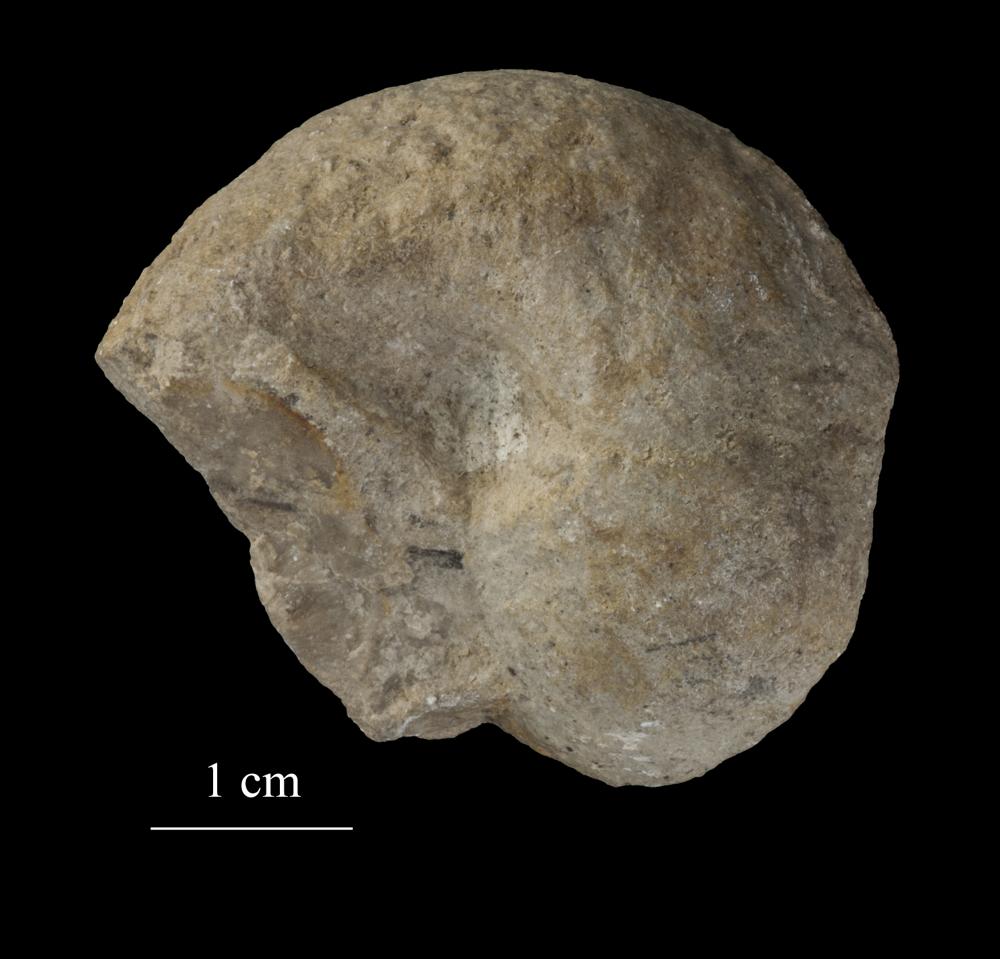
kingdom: Animalia
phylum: Mollusca
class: Gastropoda
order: Neogastropoda
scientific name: Neogastropoda
